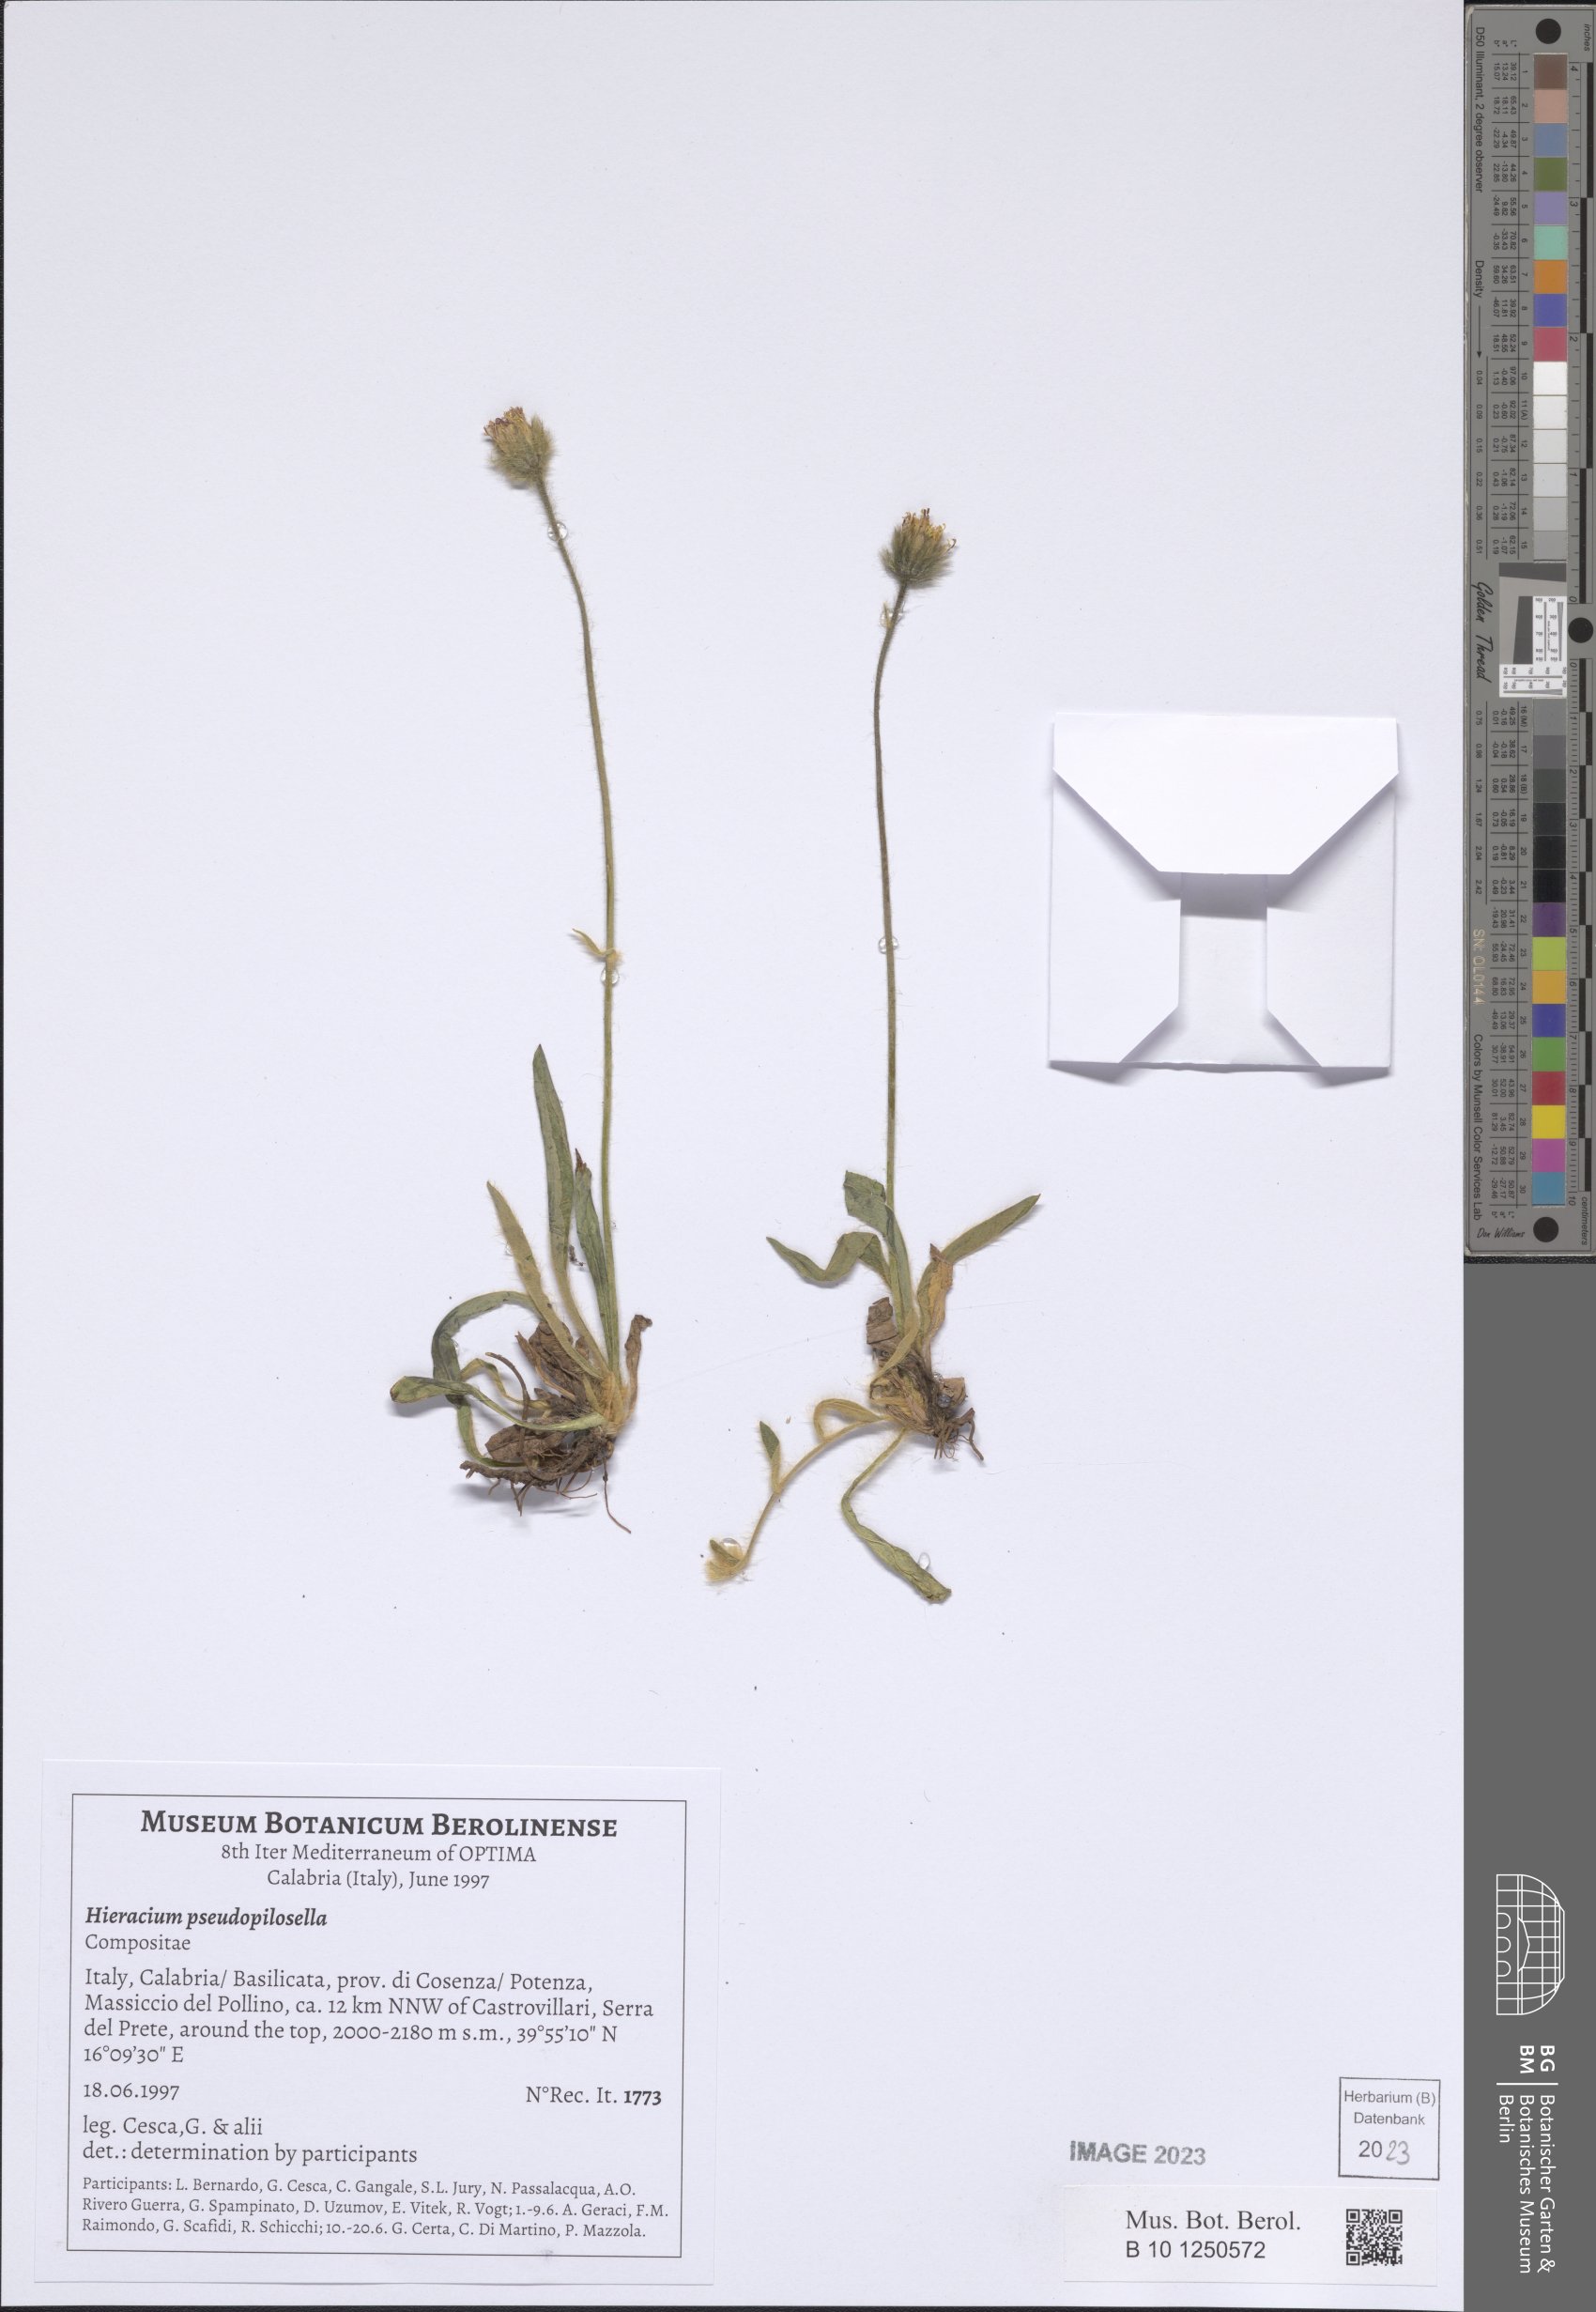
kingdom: Plantae
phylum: Tracheophyta
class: Magnoliopsida
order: Asterales
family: Asteraceae
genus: Pilosella
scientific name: Pilosella pseudopilosella
